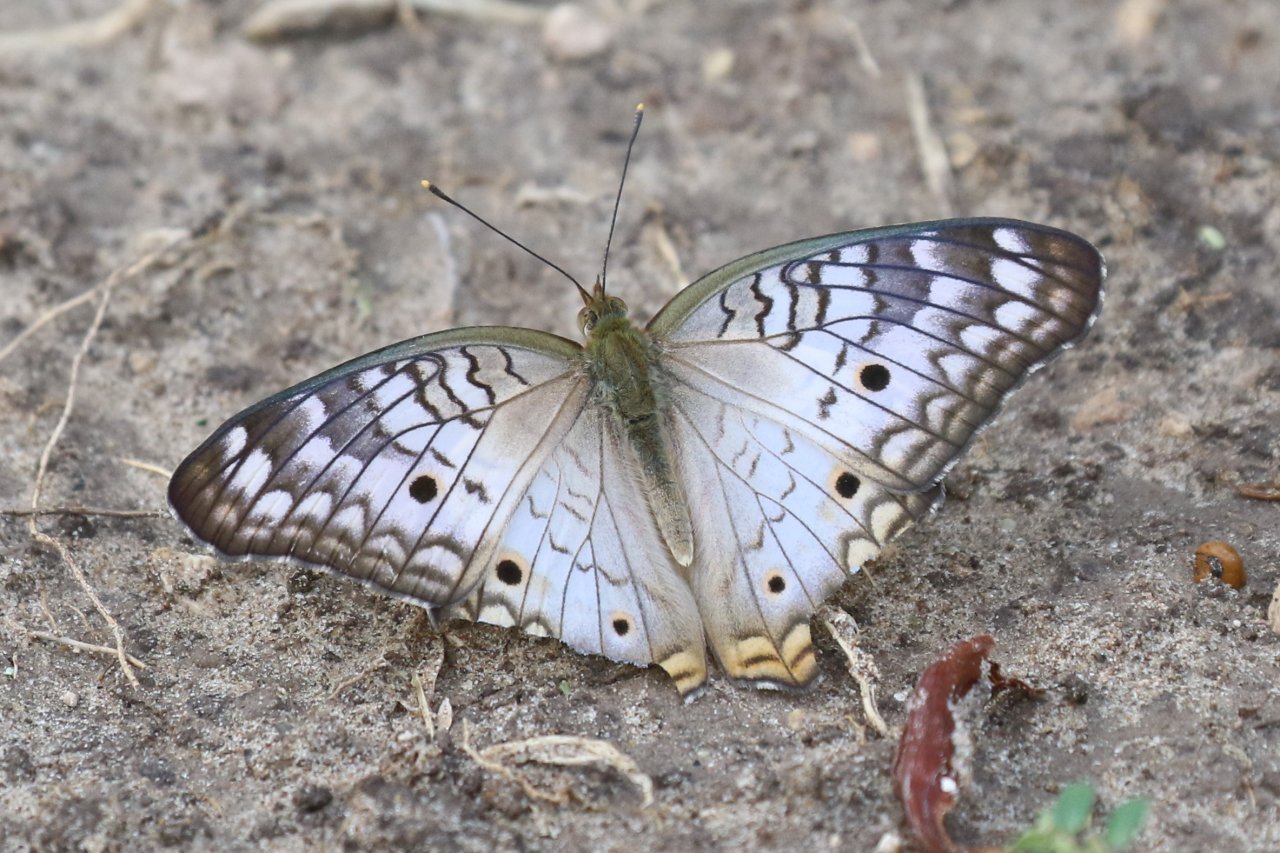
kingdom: Animalia
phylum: Arthropoda
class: Insecta
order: Lepidoptera
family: Nymphalidae
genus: Anartia
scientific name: Anartia jatrophae
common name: White Peacock
